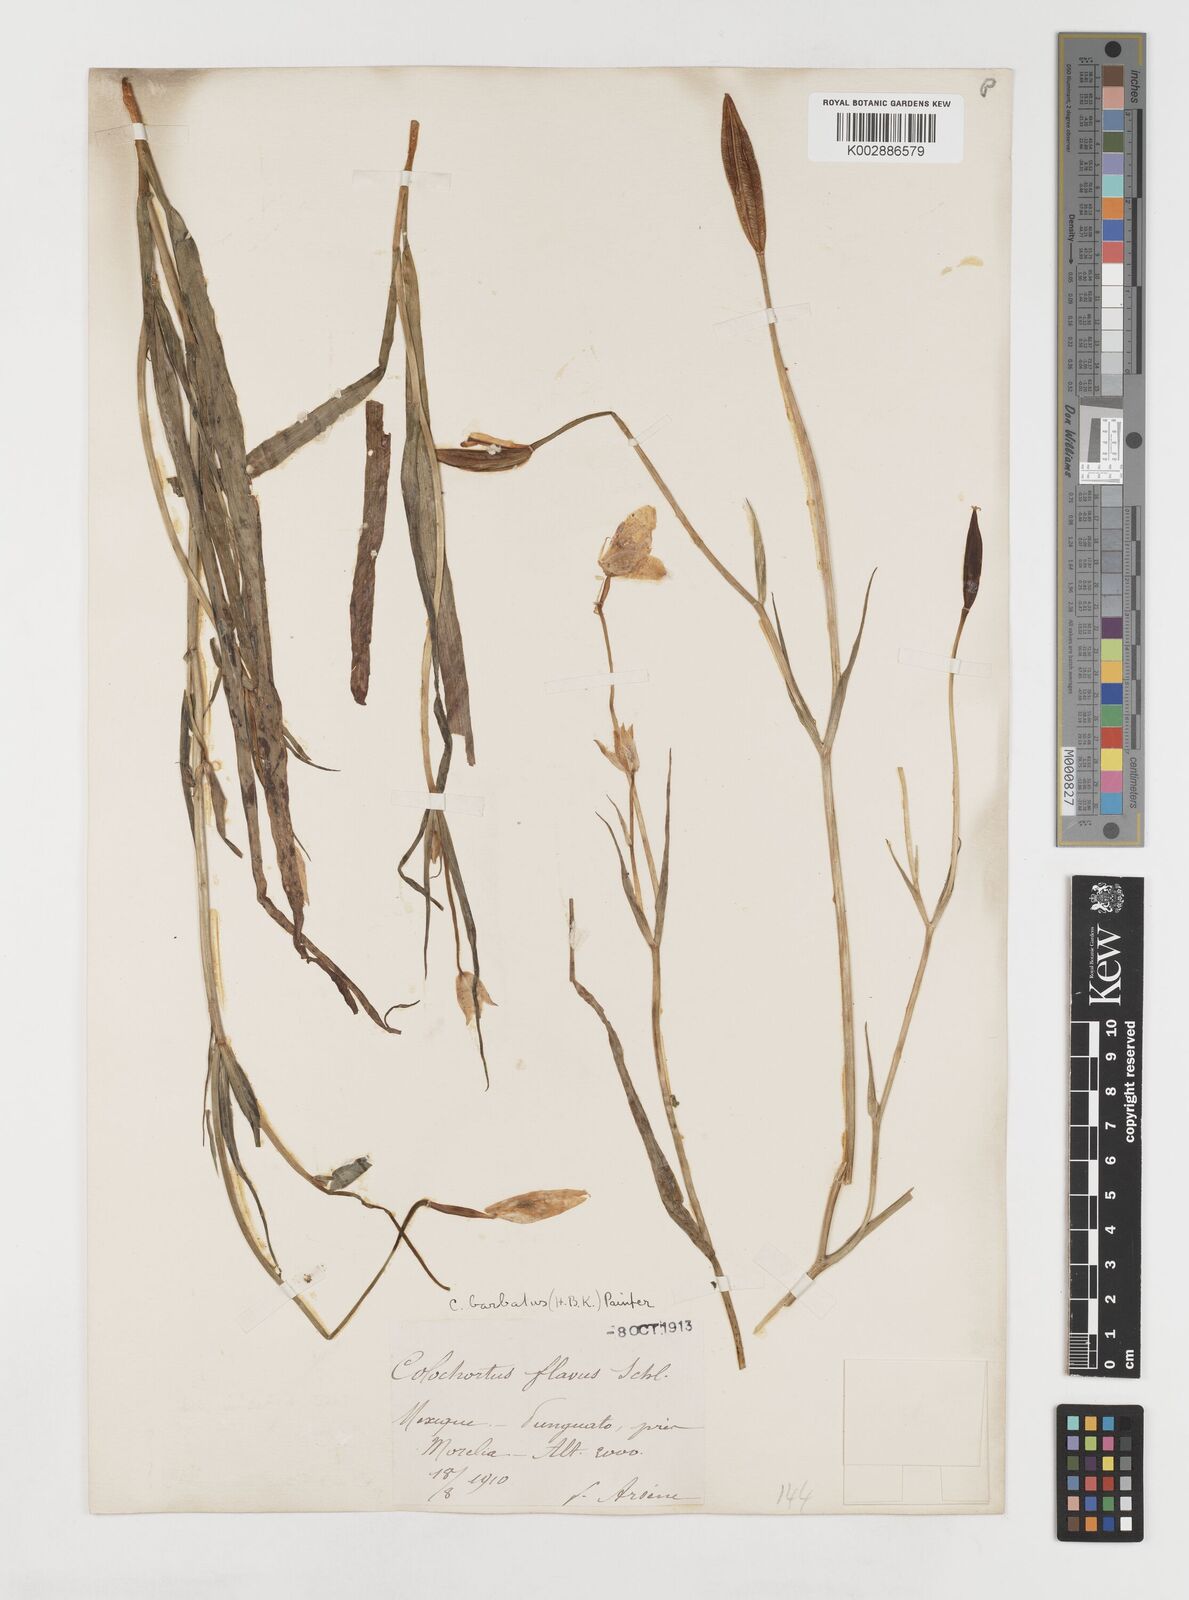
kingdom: Plantae
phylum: Tracheophyta
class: Liliopsida
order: Liliales
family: Liliaceae
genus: Calochortus
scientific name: Calochortus barbatus
